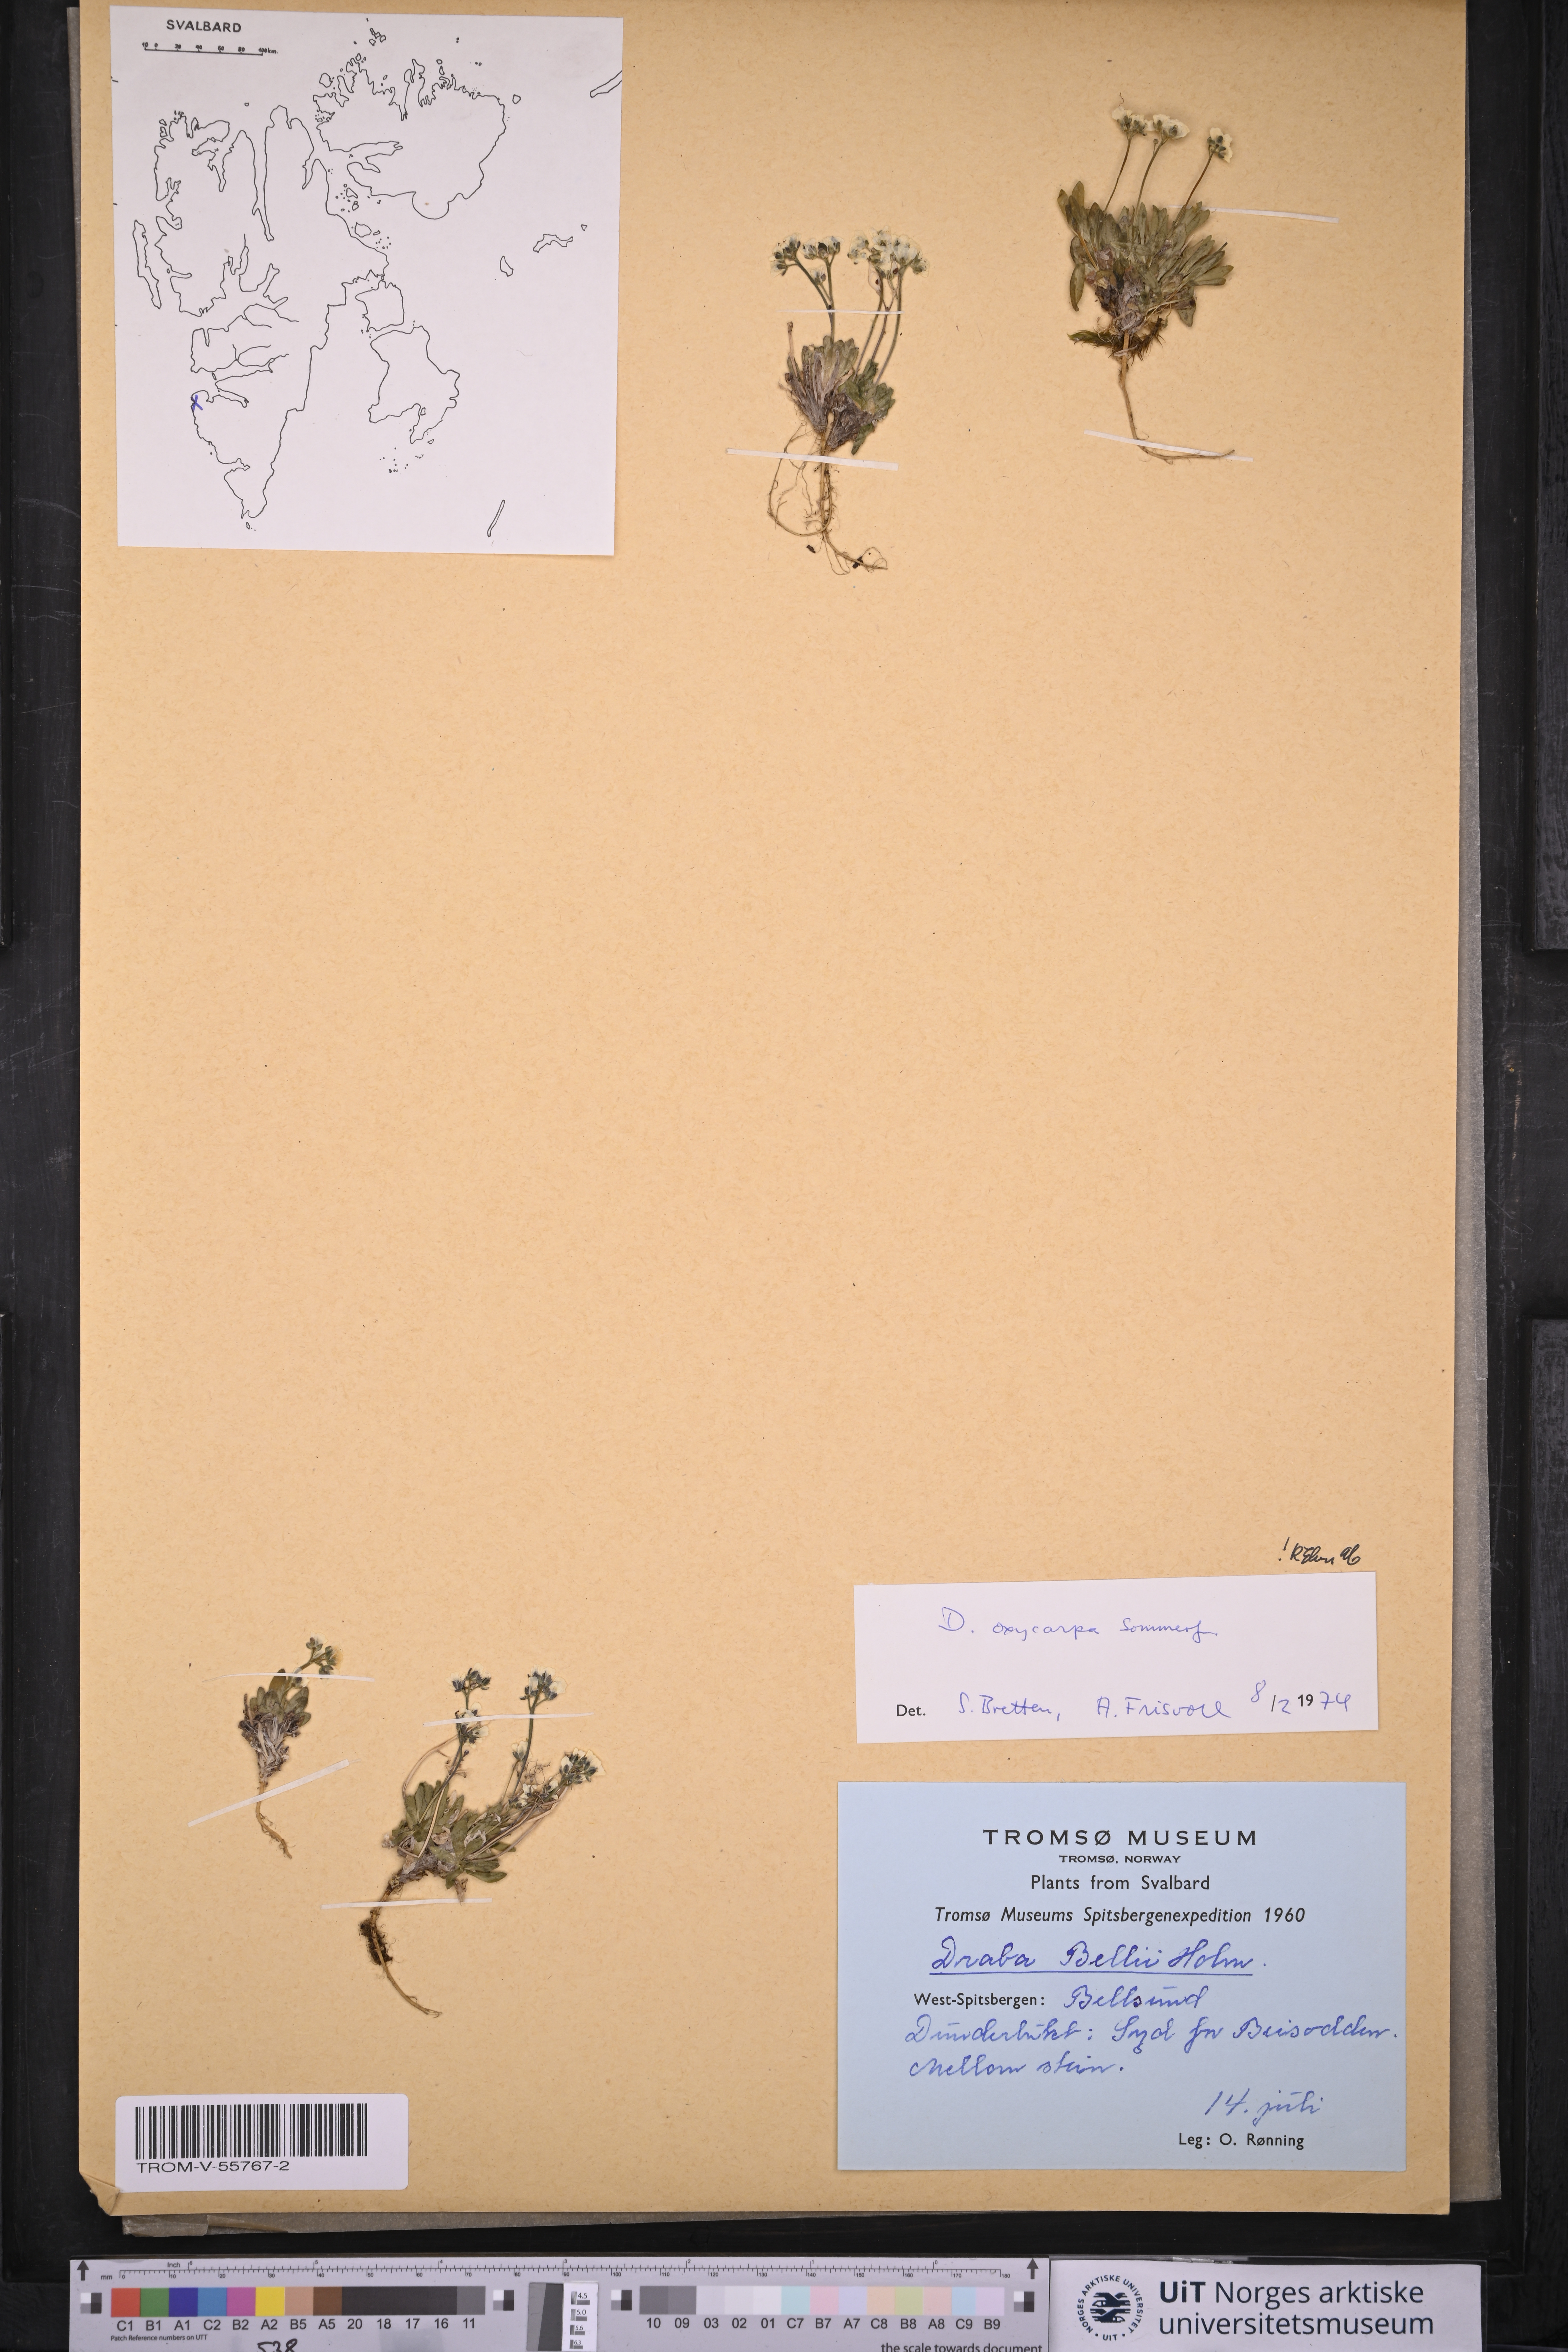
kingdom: Plantae
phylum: Tracheophyta
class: Magnoliopsida
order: Brassicales
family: Brassicaceae
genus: Draba
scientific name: Draba oxycarpa
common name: Sharp-fruited whitlow-grass
